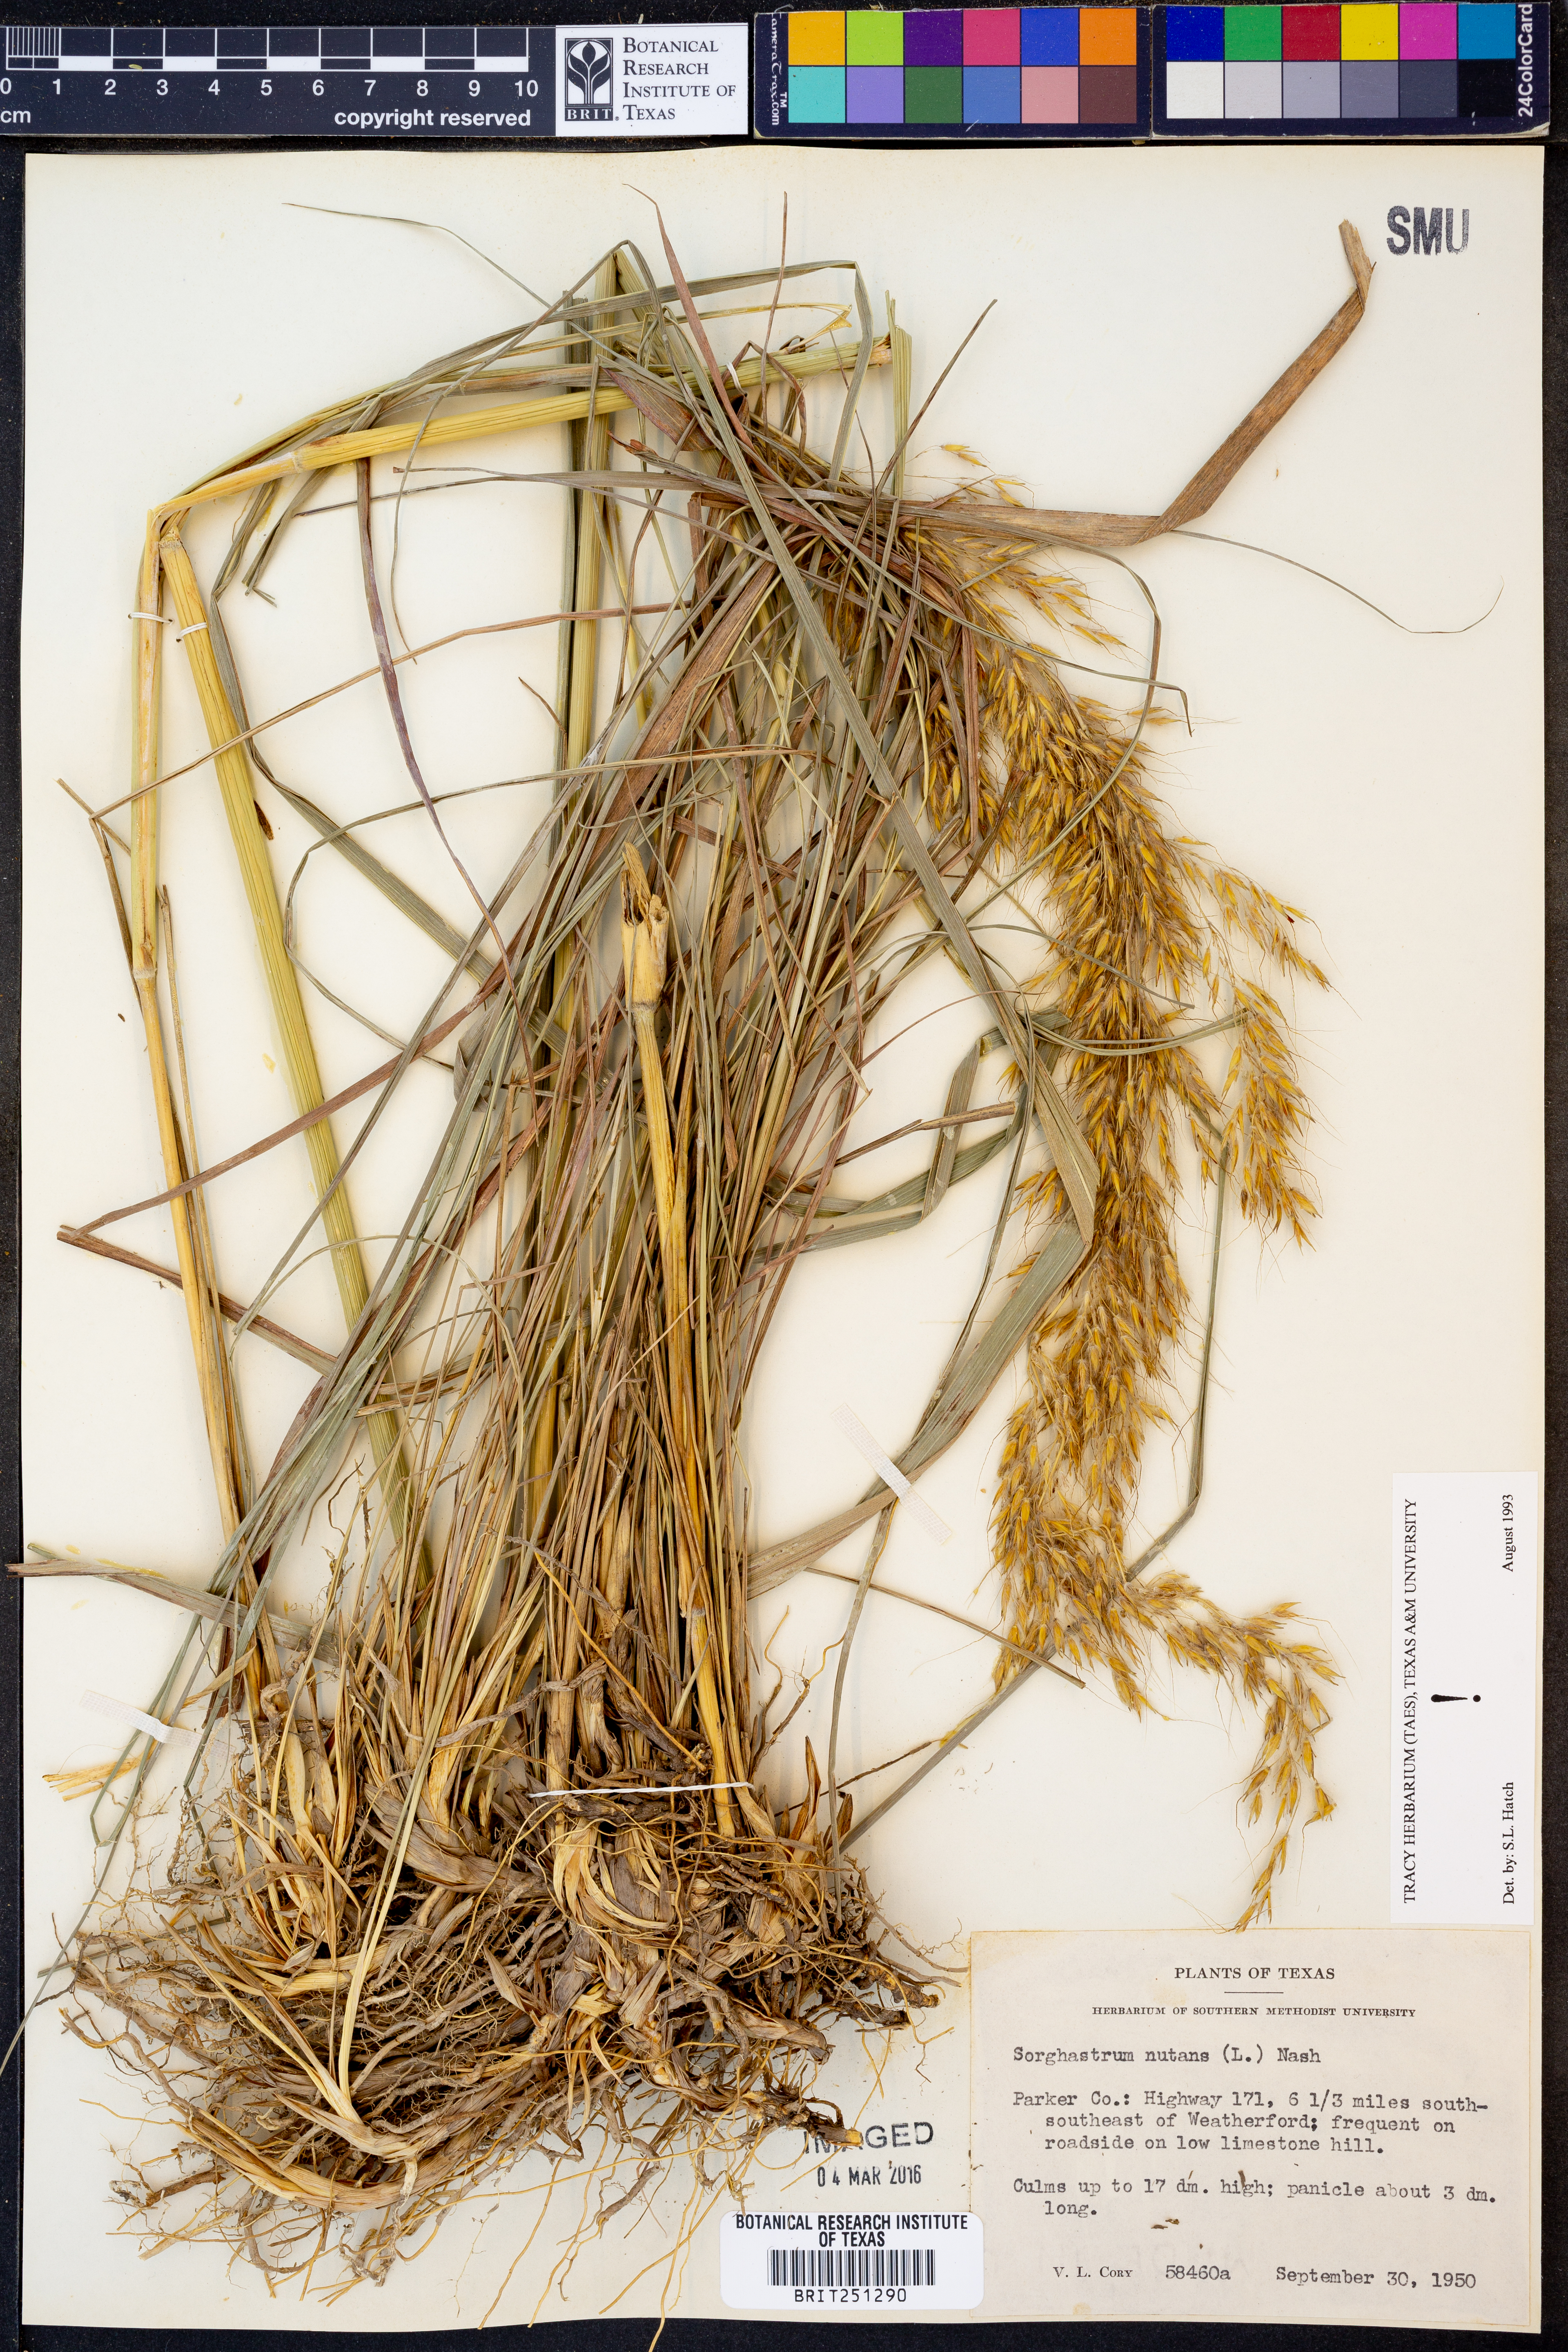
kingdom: Plantae
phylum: Tracheophyta
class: Liliopsida
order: Poales
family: Poaceae
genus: Sorghastrum
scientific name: Sorghastrum nutans
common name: Indian grass
